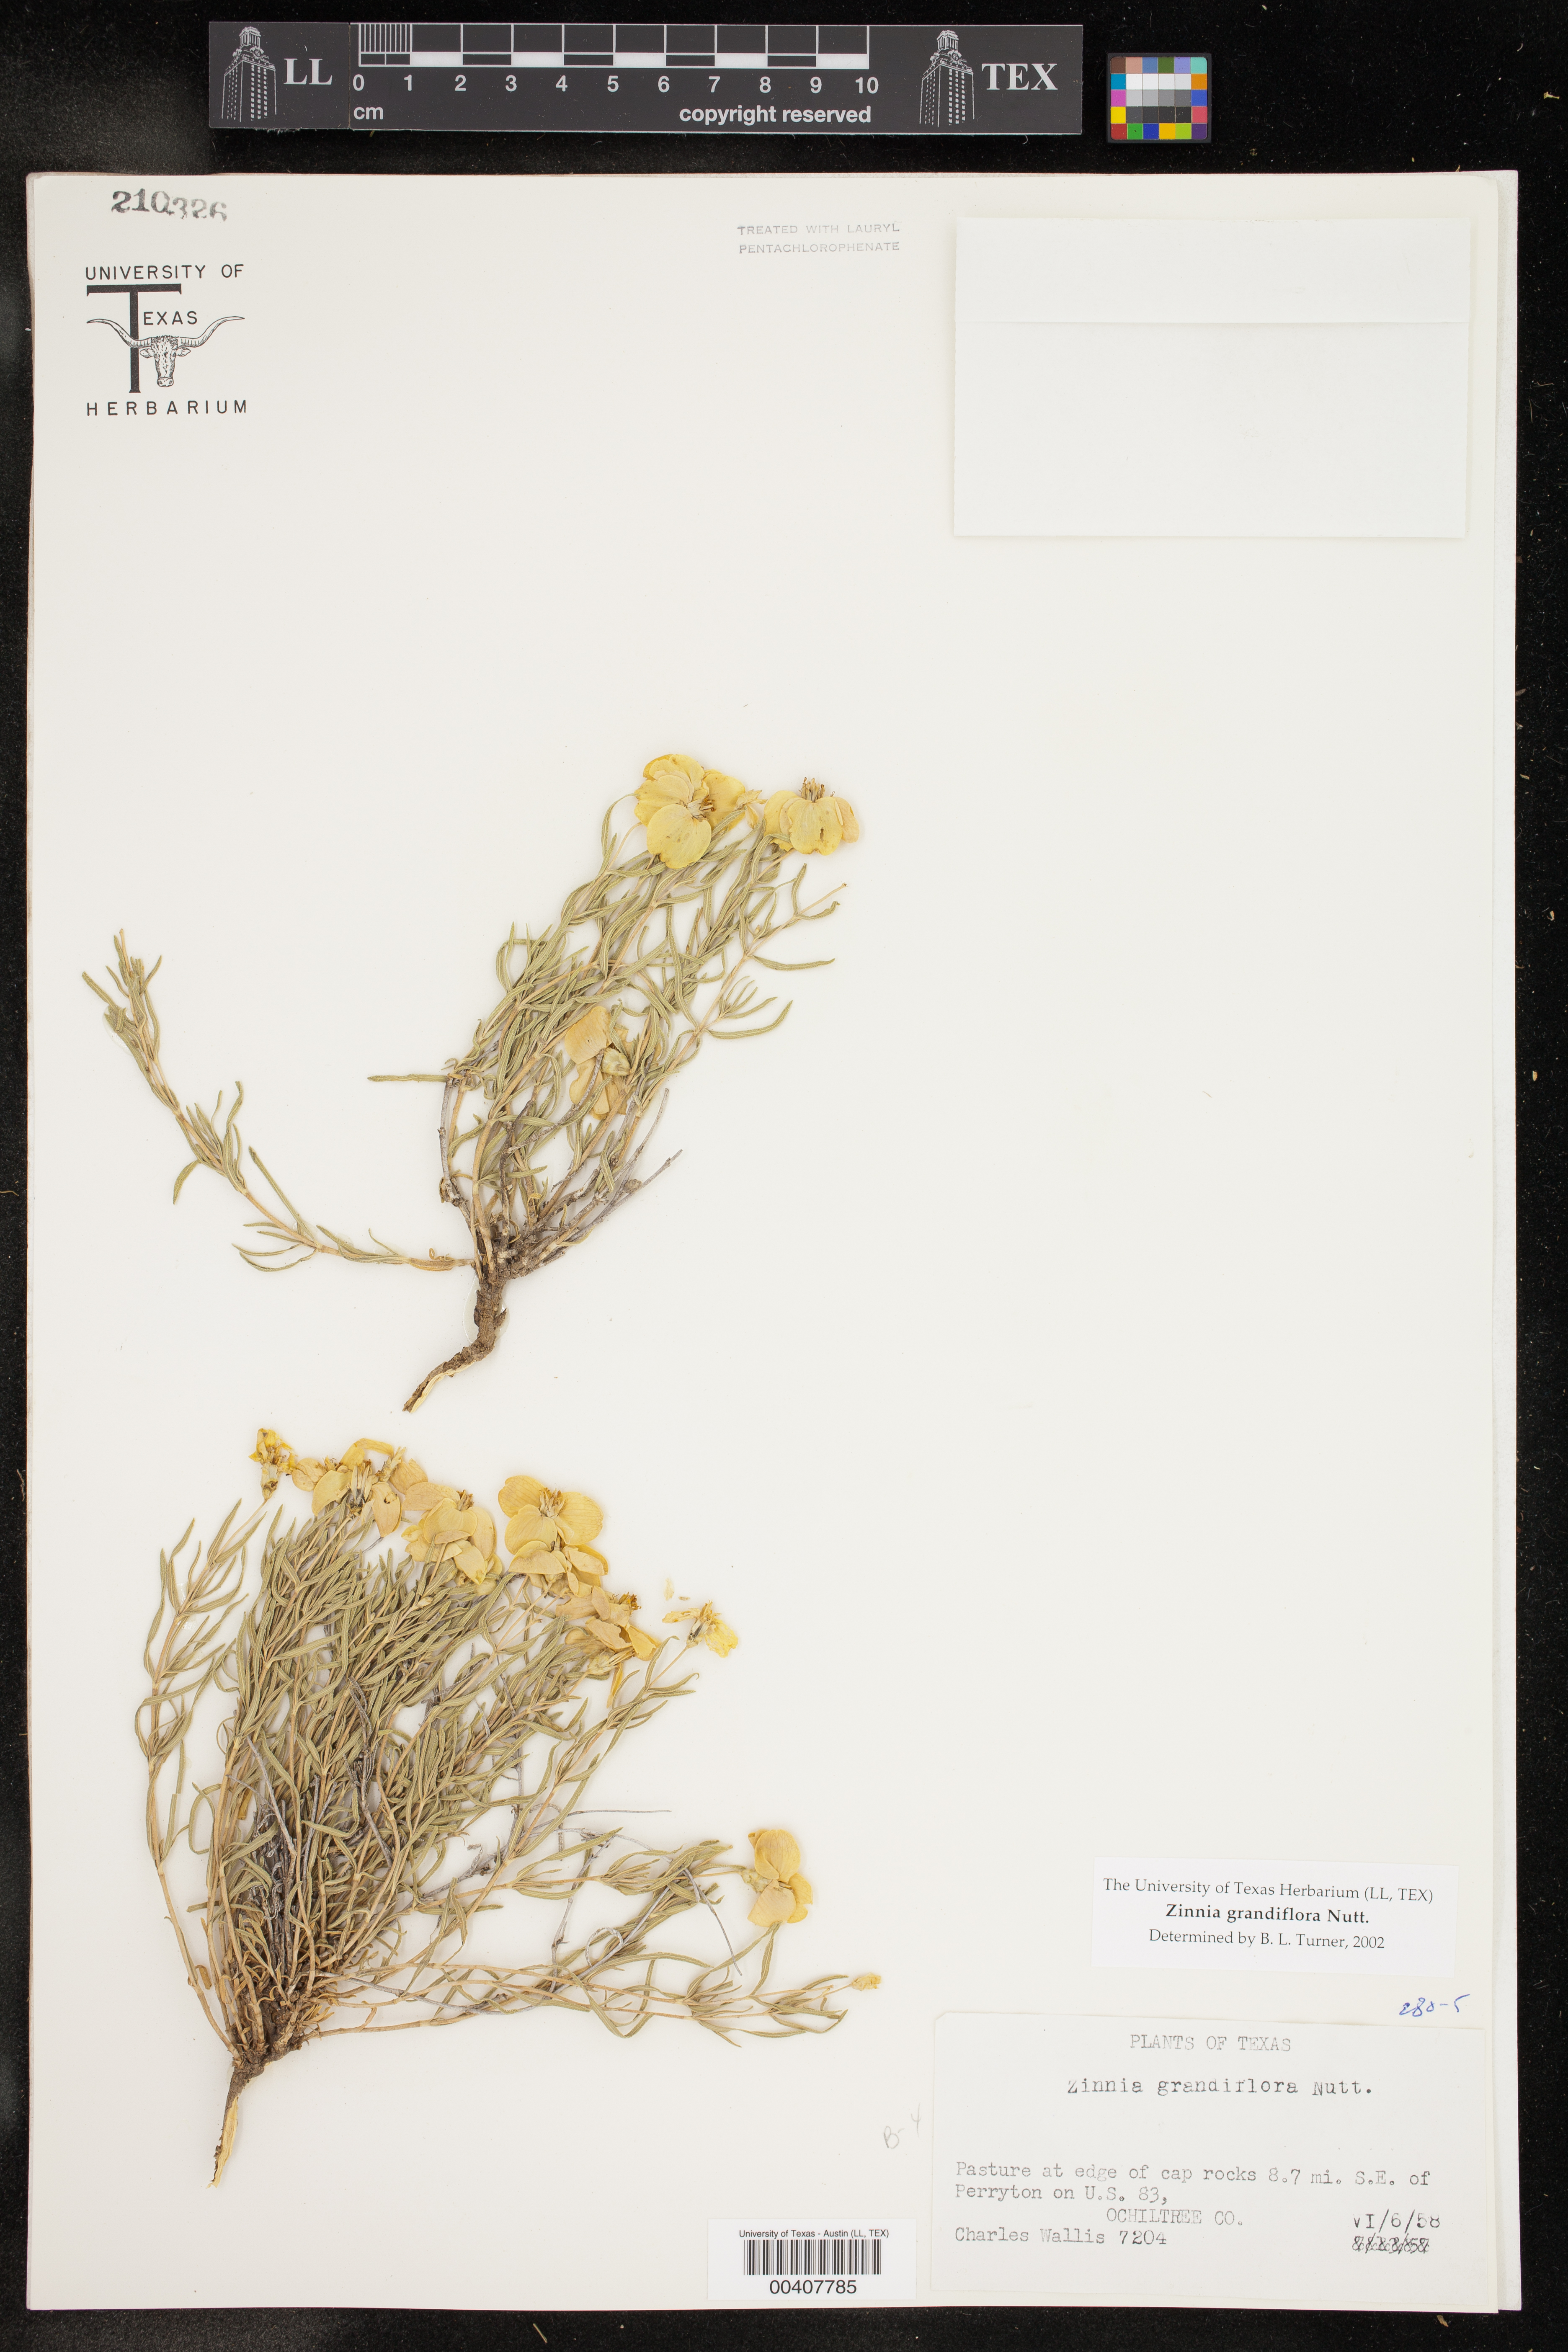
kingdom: Plantae
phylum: Tracheophyta
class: Magnoliopsida
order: Asterales
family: Asteraceae
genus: Zinnia
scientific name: Zinnia grandiflora
